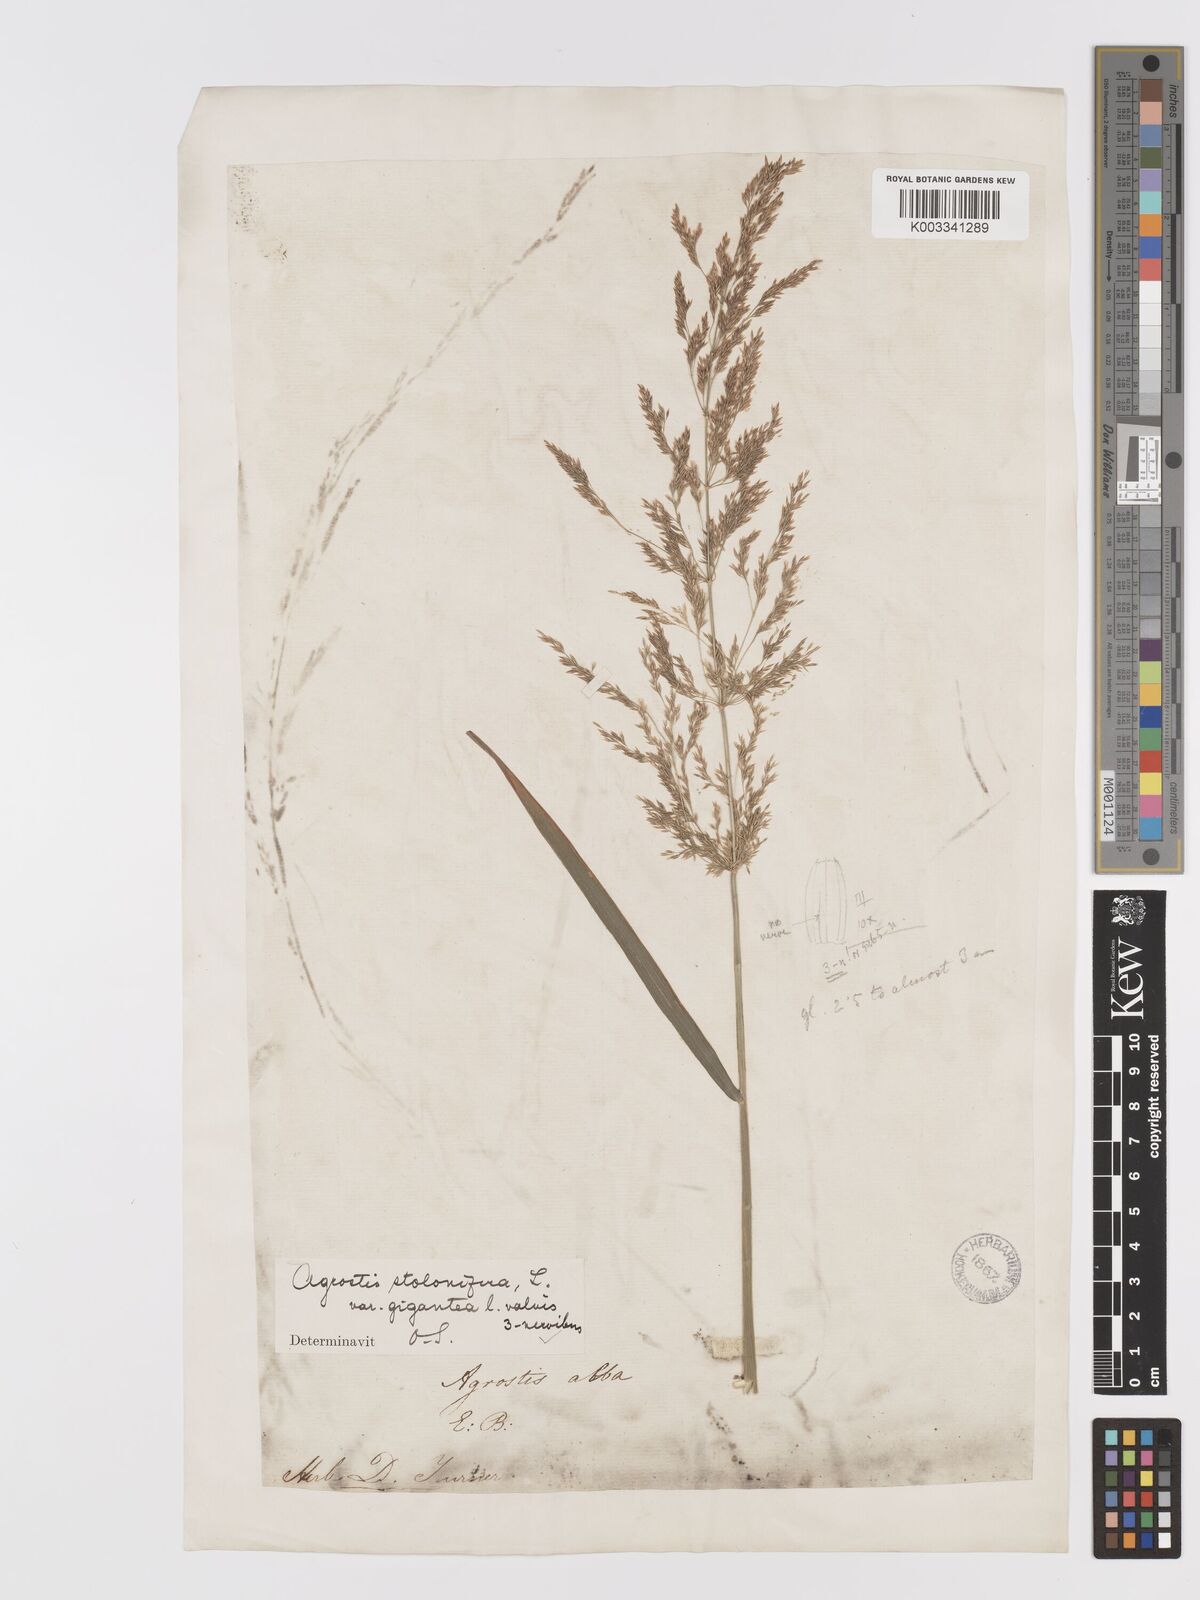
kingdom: Plantae
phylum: Tracheophyta
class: Liliopsida
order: Poales
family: Poaceae
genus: Agrostis
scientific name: Agrostis gigantea
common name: Black bent
